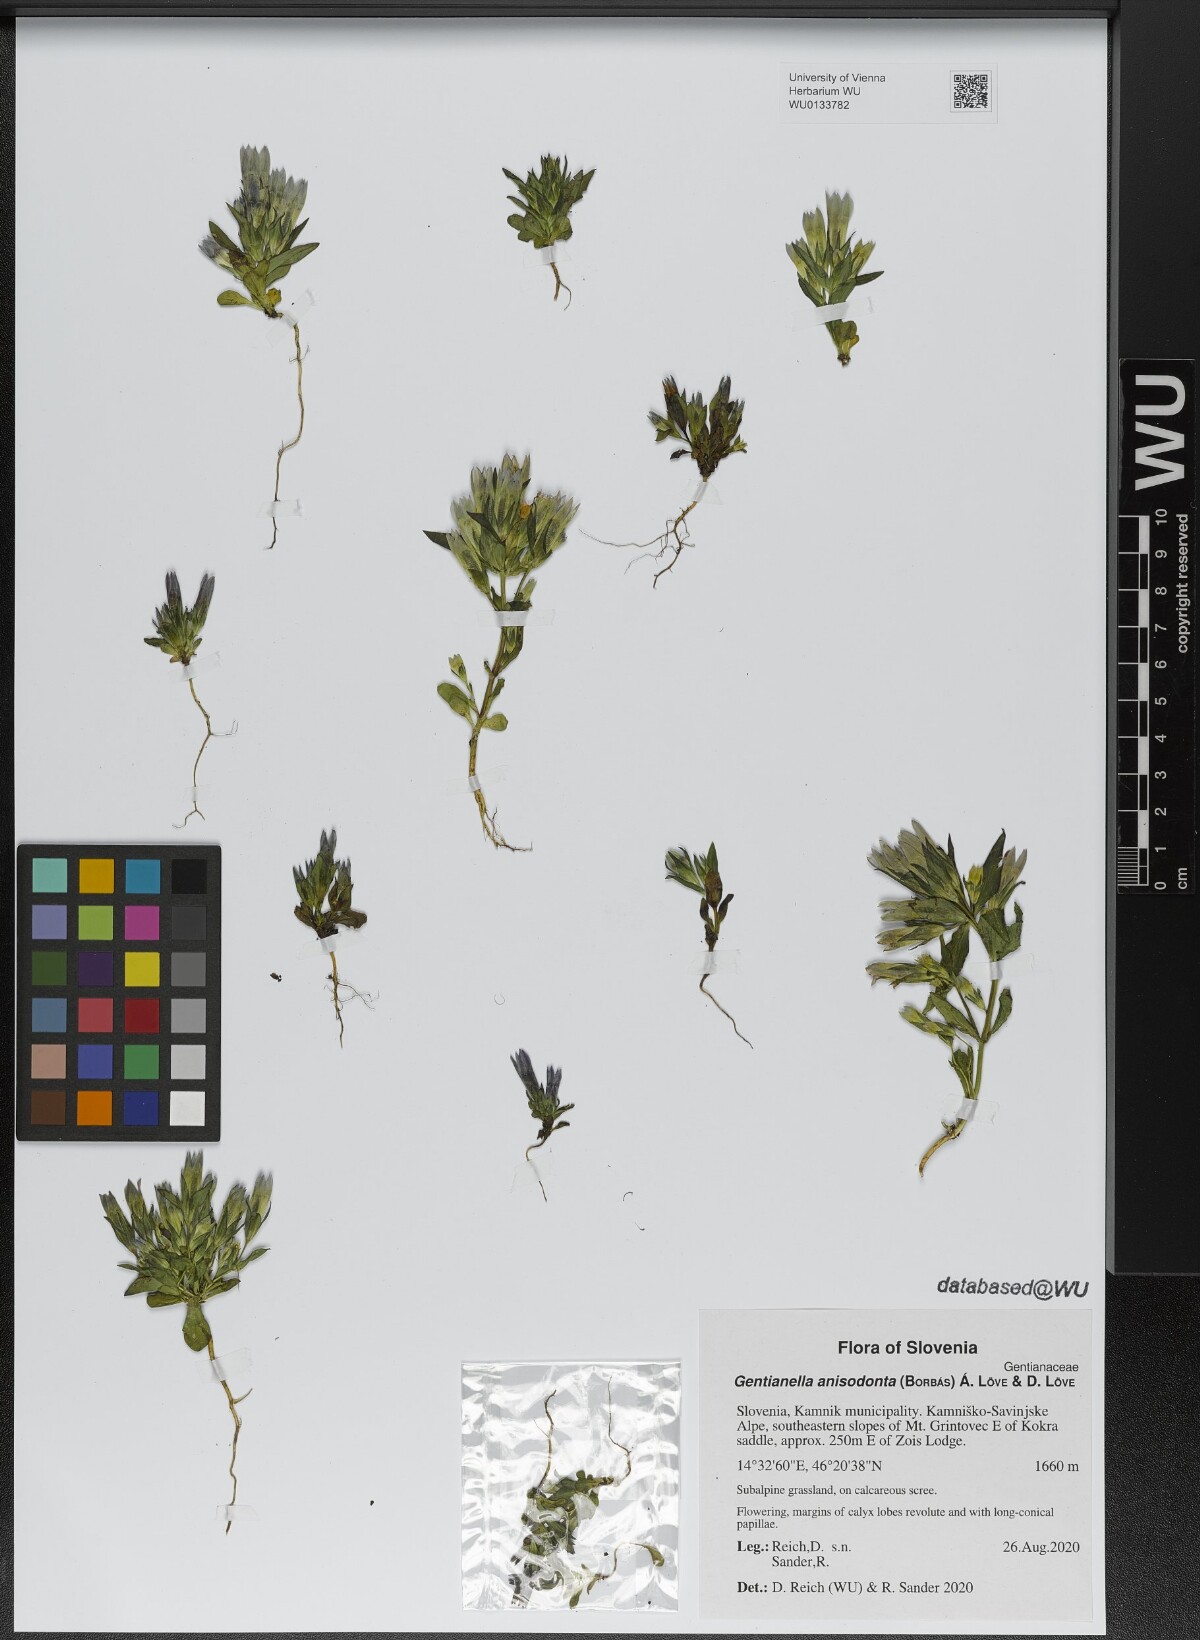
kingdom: Plantae
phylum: Tracheophyta
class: Magnoliopsida
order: Gentianales
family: Gentianaceae
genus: Gentianella
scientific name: Gentianella anisodonta
